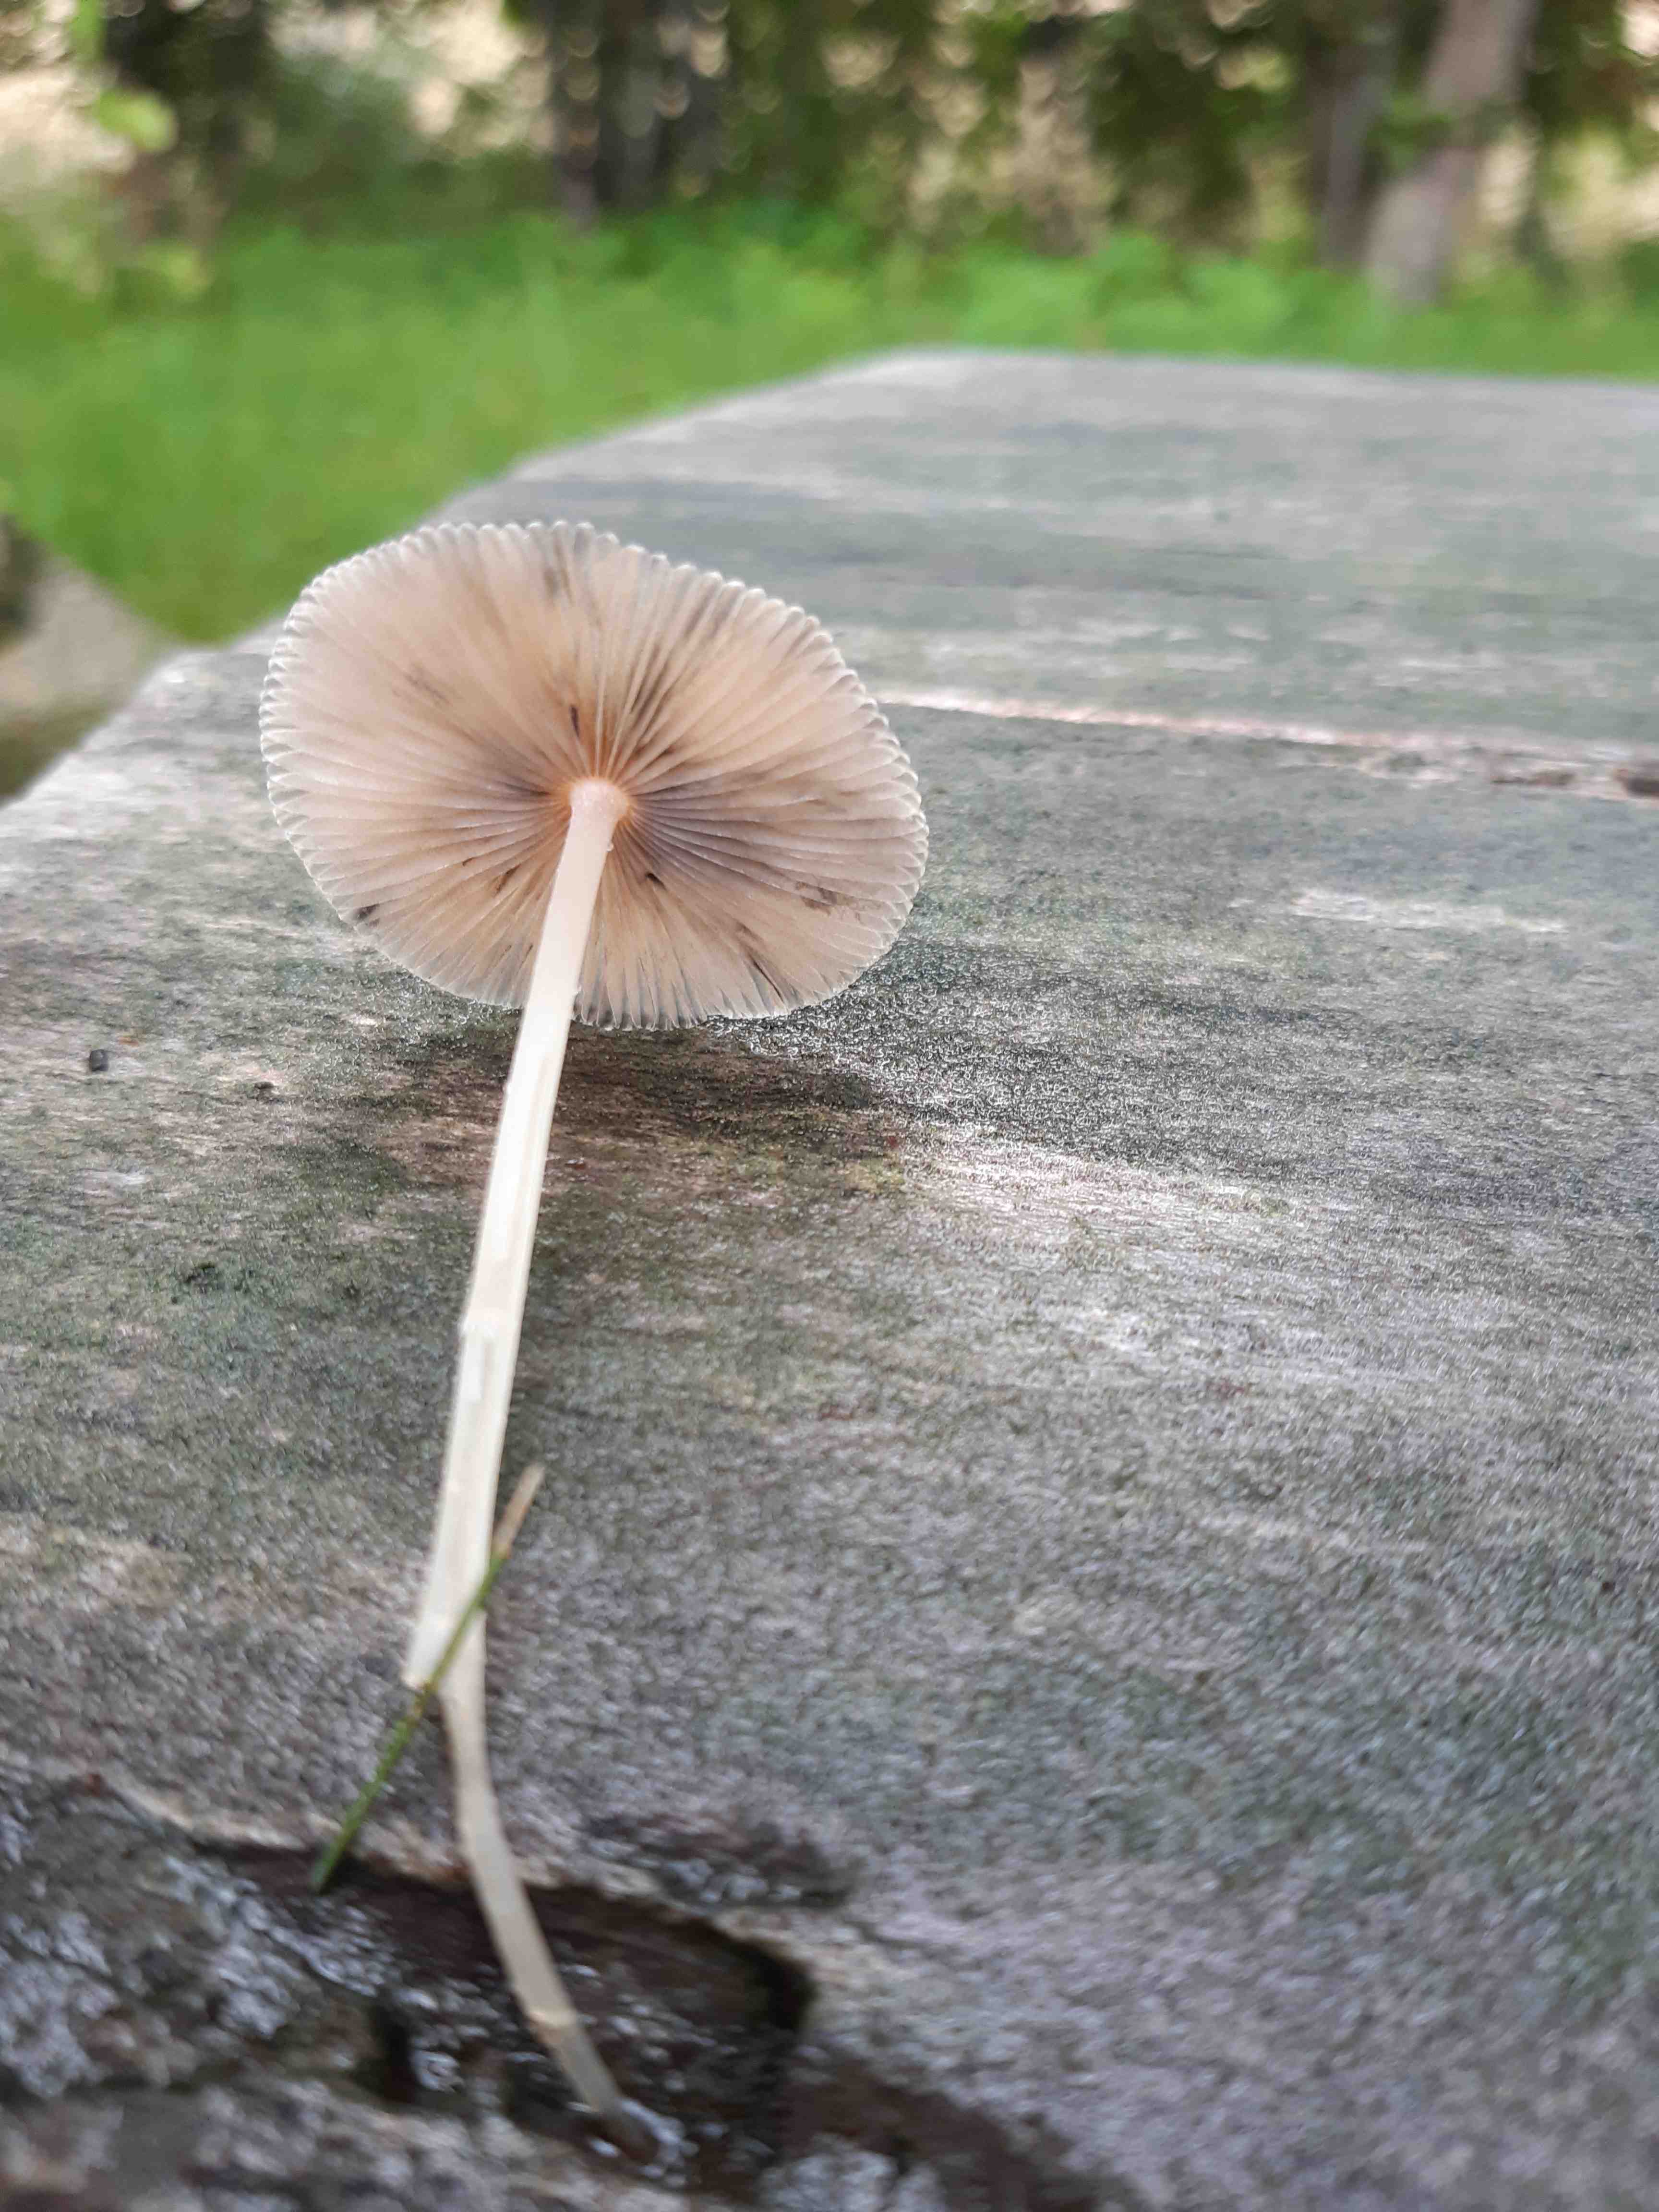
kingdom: Fungi
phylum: Basidiomycota
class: Agaricomycetes
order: Agaricales
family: Psathyrellaceae
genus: Parasola
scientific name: Parasola
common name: hjulhat
